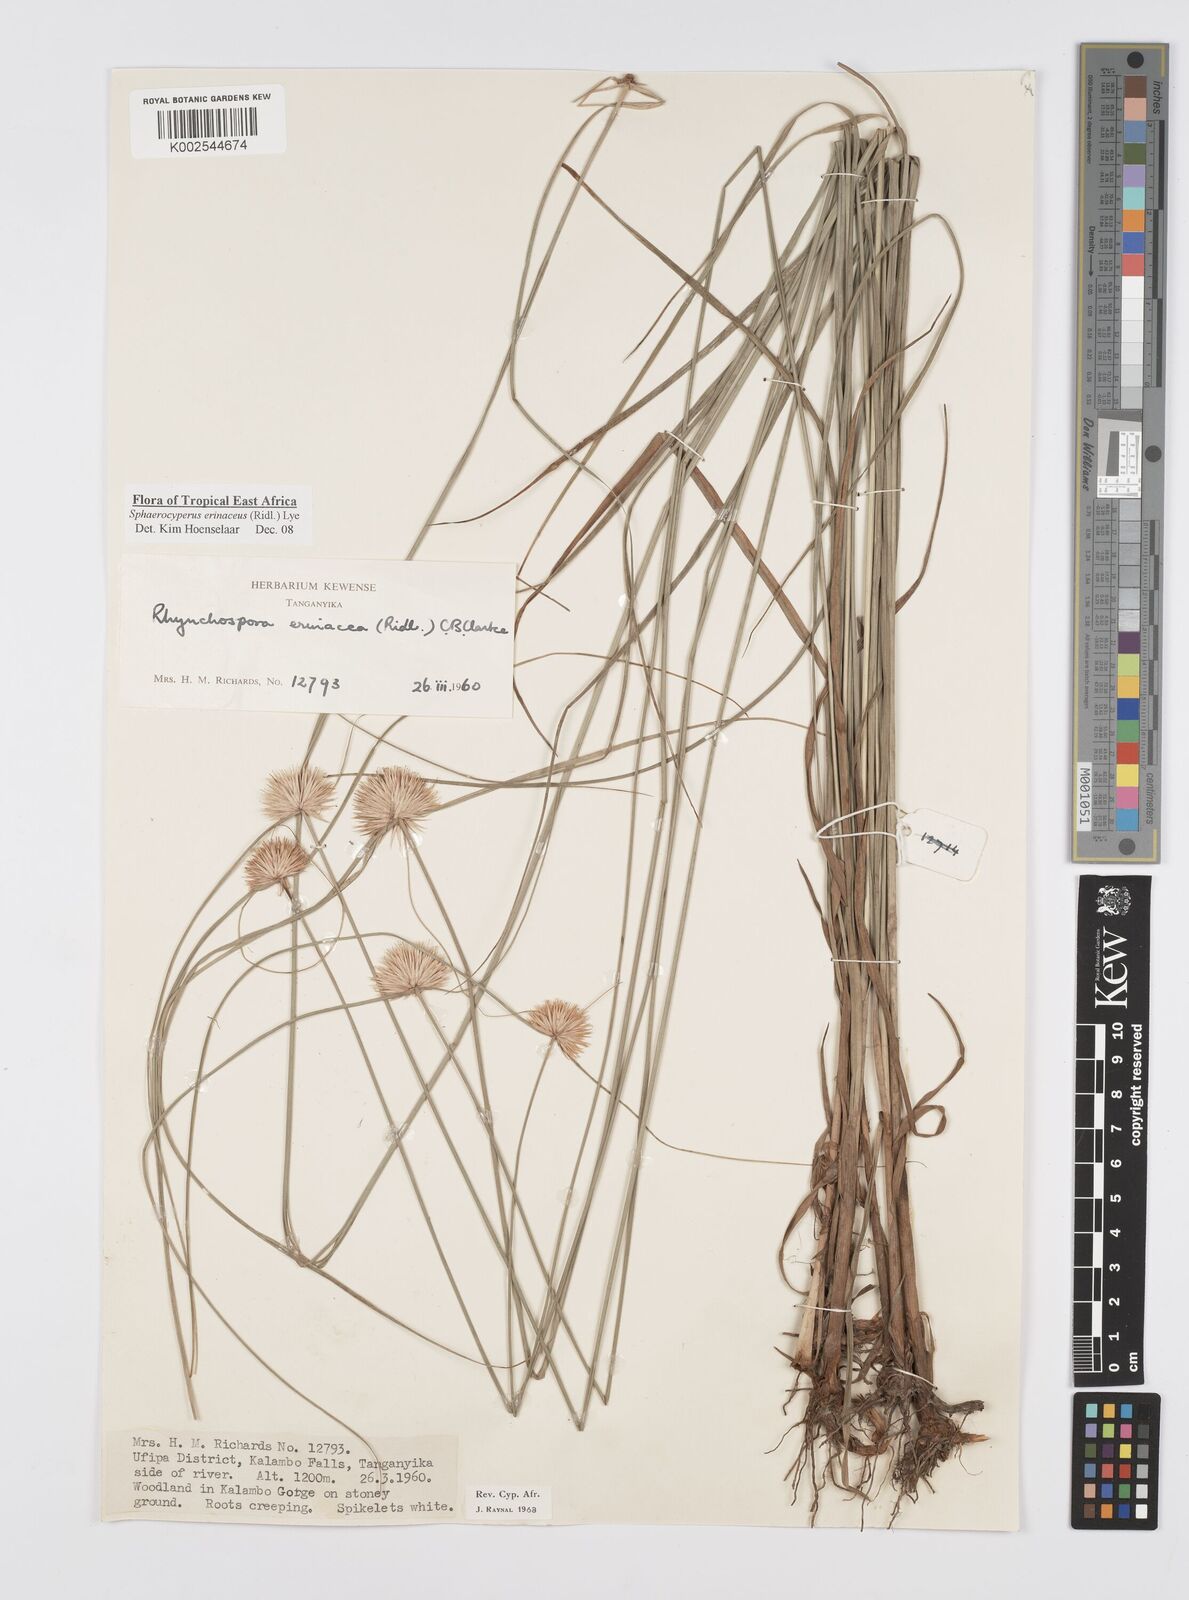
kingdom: Plantae
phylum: Tracheophyta
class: Liliopsida
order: Poales
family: Cyperaceae
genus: Cyperus
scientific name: Cyperus erinaceus
